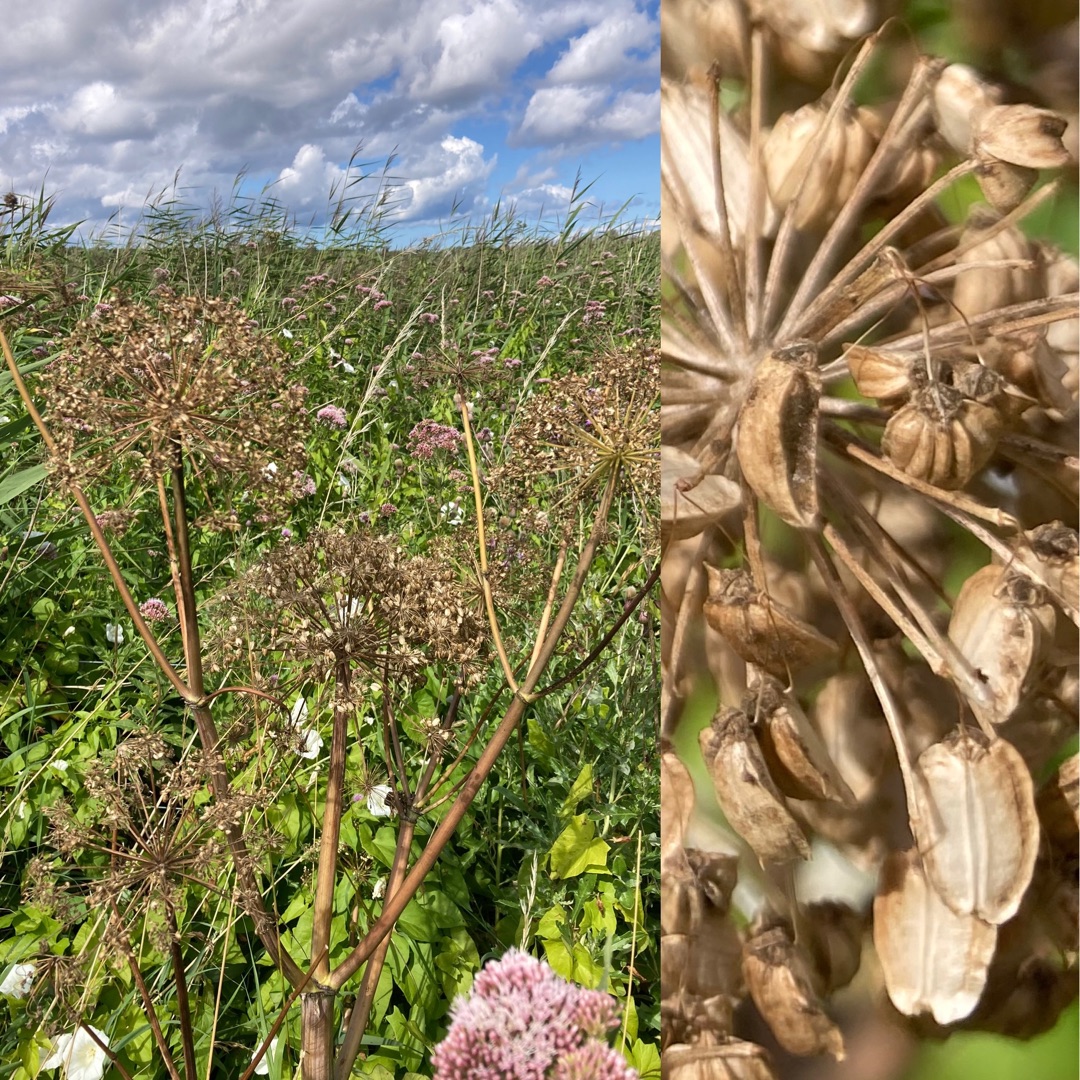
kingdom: Plantae
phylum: Tracheophyta
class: Magnoliopsida
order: Apiales
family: Apiaceae
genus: Angelica
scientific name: Angelica archangelica
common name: Kvan
